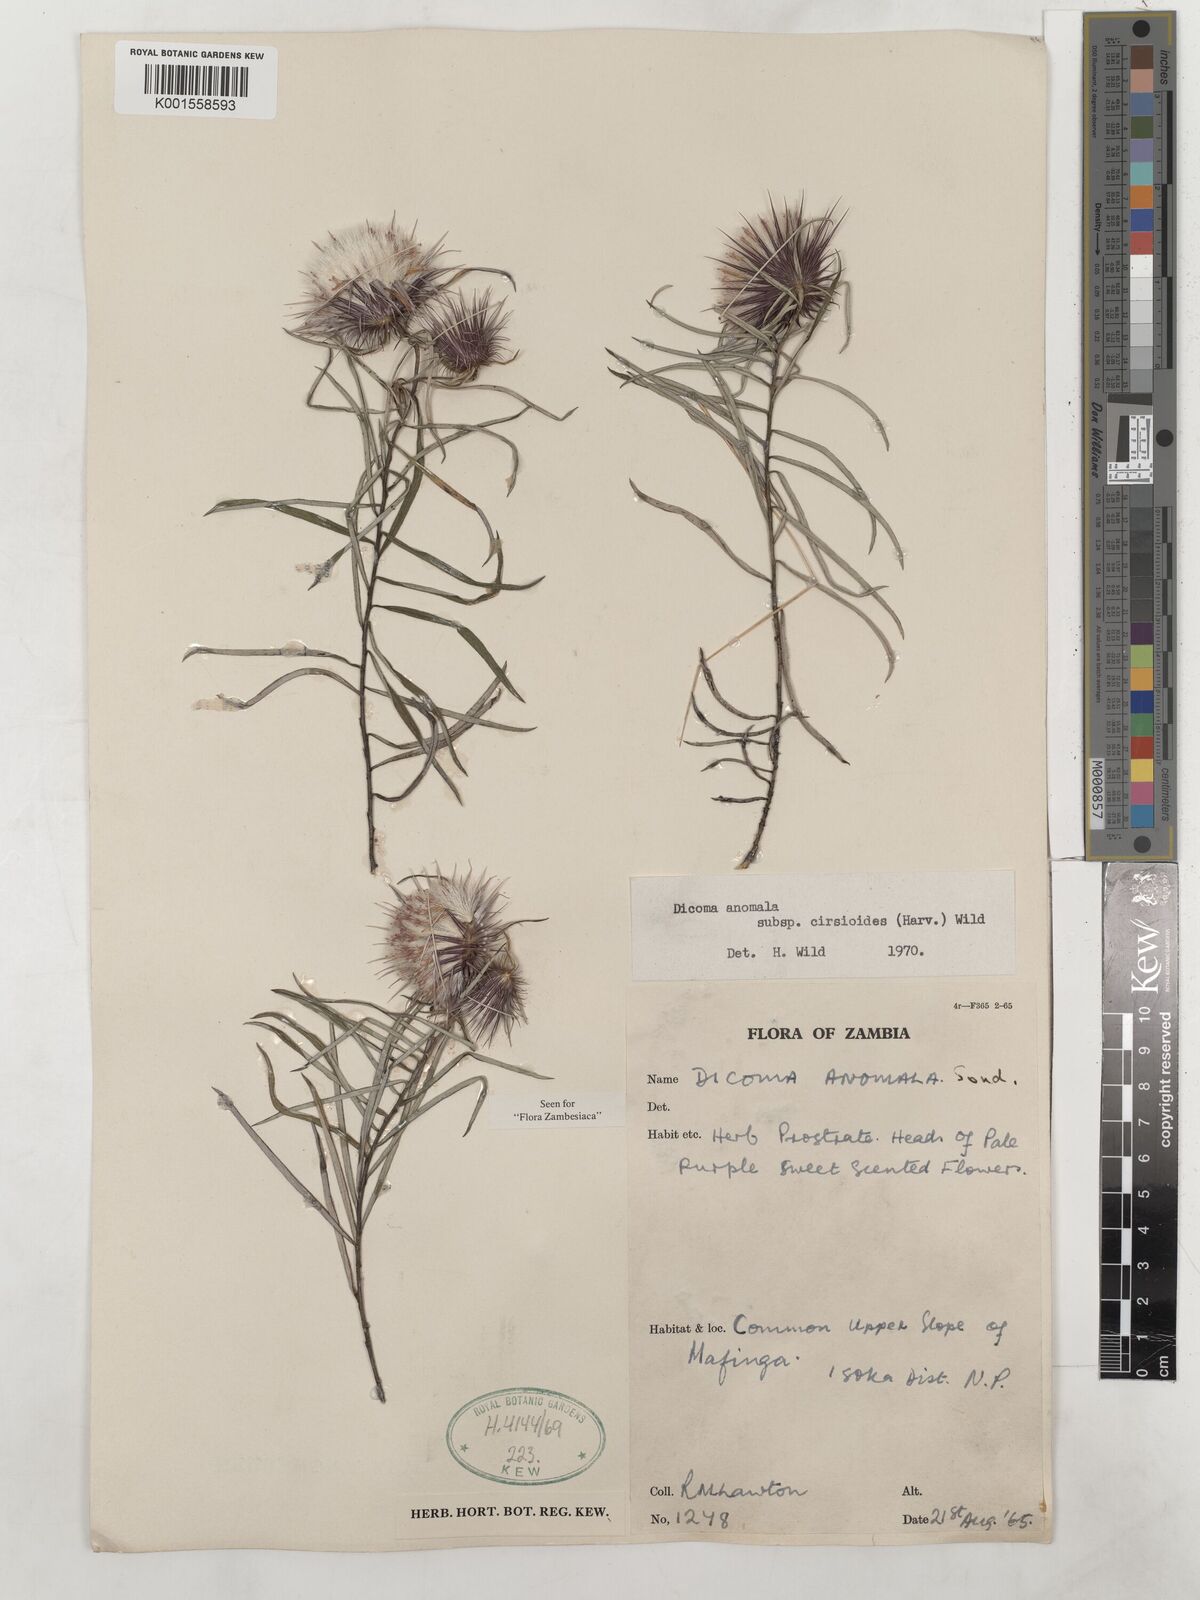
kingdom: Plantae
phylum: Tracheophyta
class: Magnoliopsida
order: Asterales
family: Asteraceae
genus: Dicoma
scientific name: Dicoma anomala
